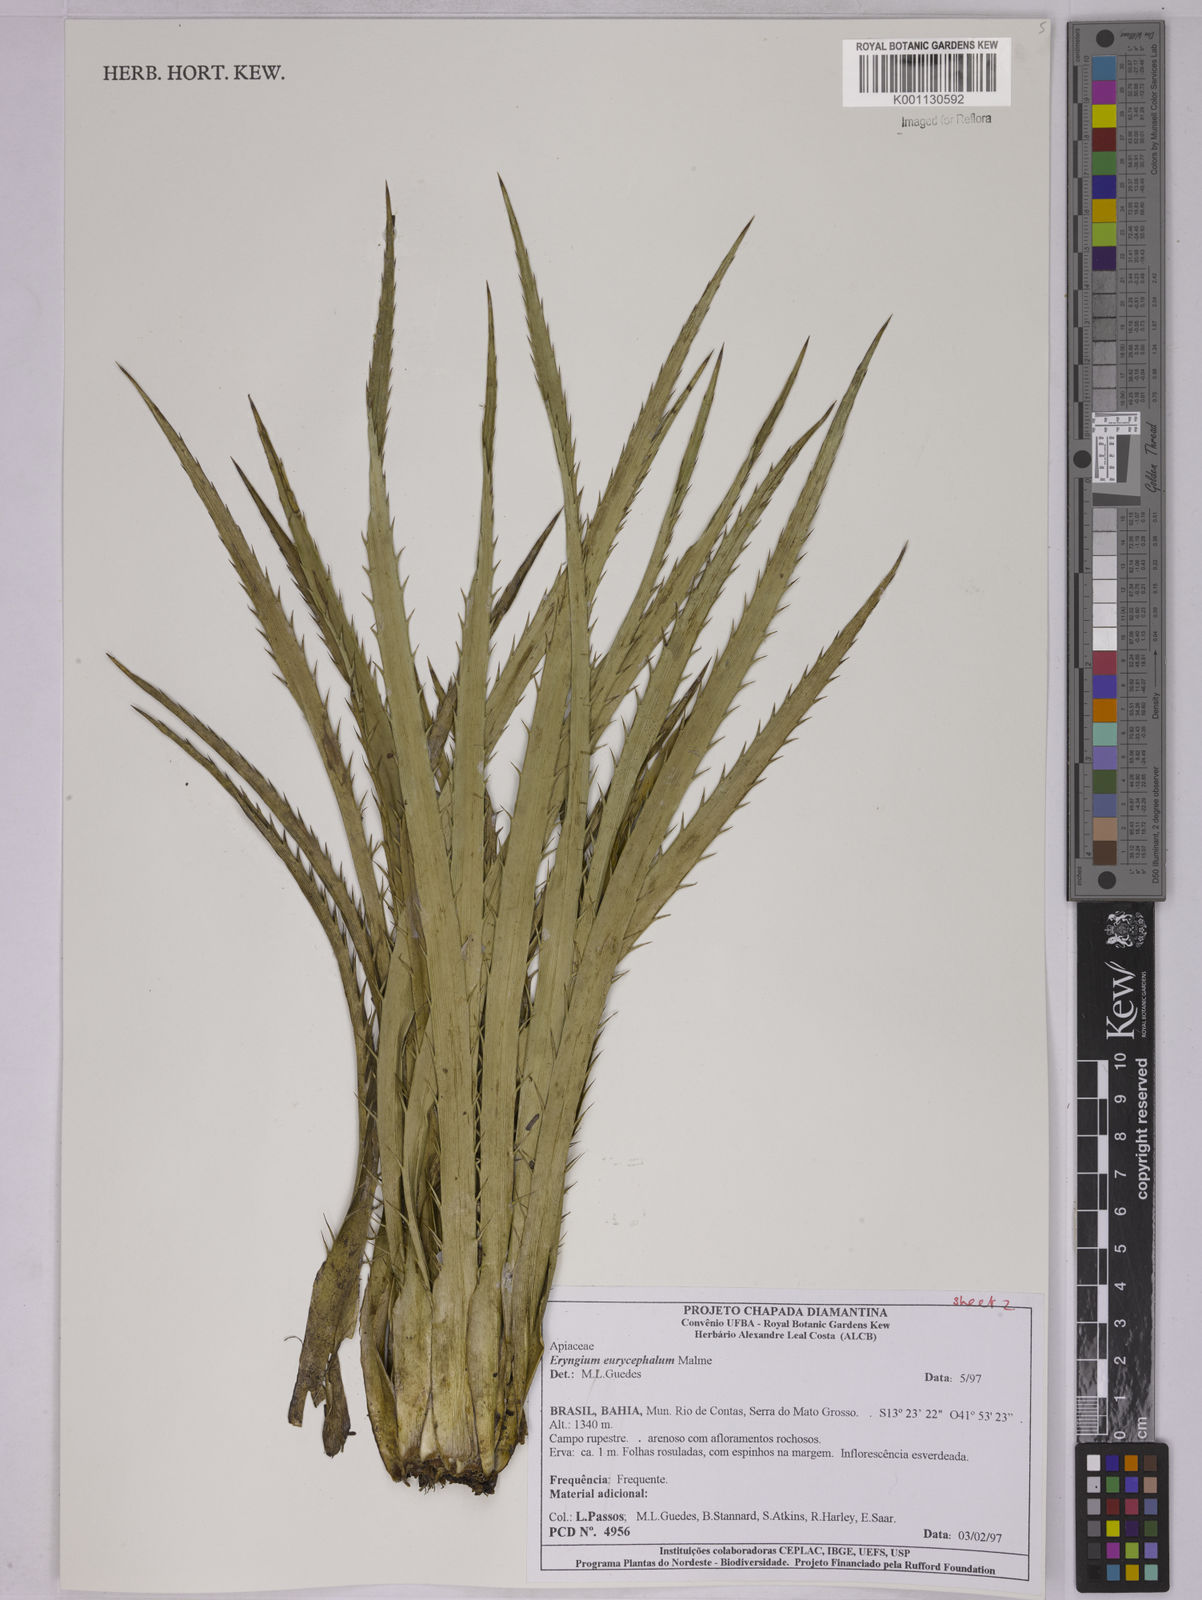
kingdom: Plantae
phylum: Tracheophyta
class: Magnoliopsida
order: Apiales
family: Apiaceae
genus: Eryngium
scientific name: Eryngium eurycephalum
